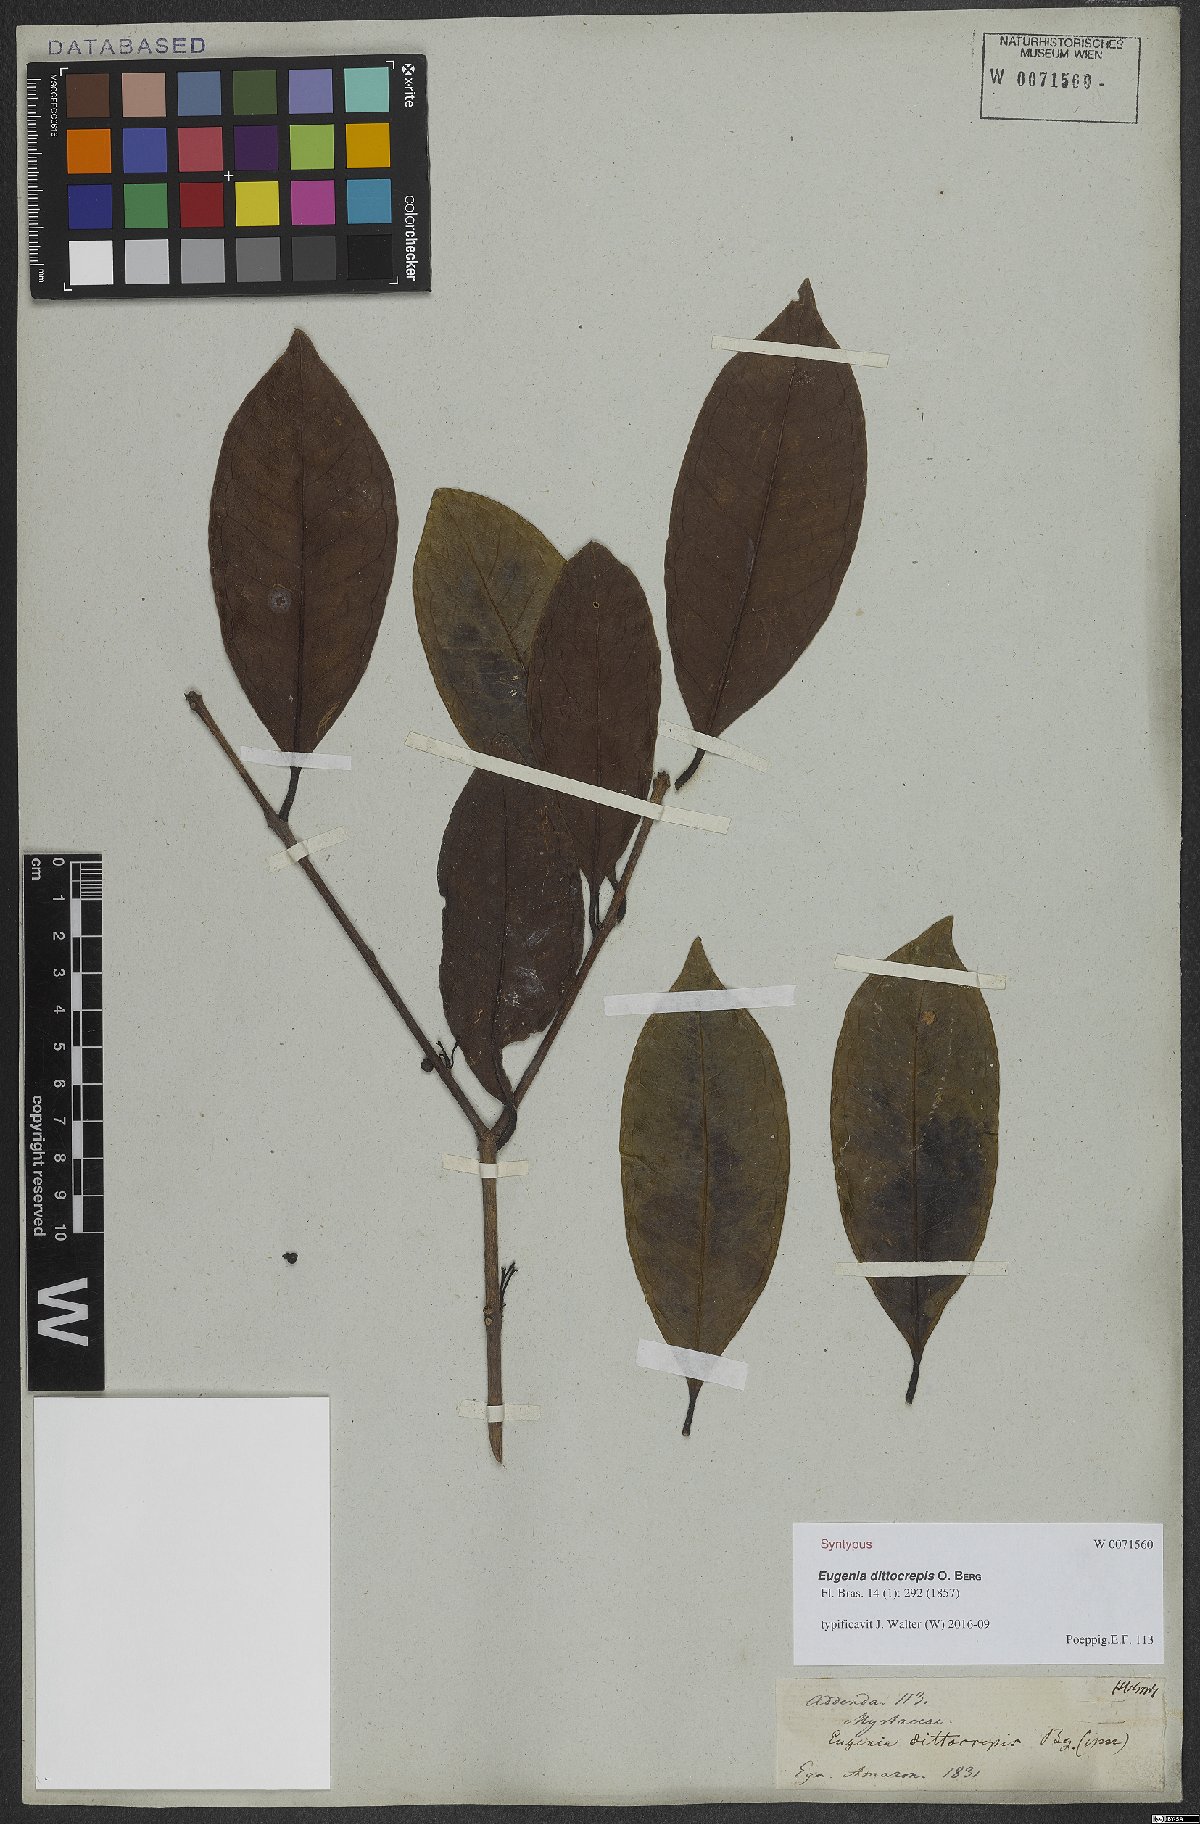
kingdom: Plantae
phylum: Tracheophyta
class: Magnoliopsida
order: Myrtales
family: Myrtaceae
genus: Eugenia
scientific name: Eugenia dittocrepis
